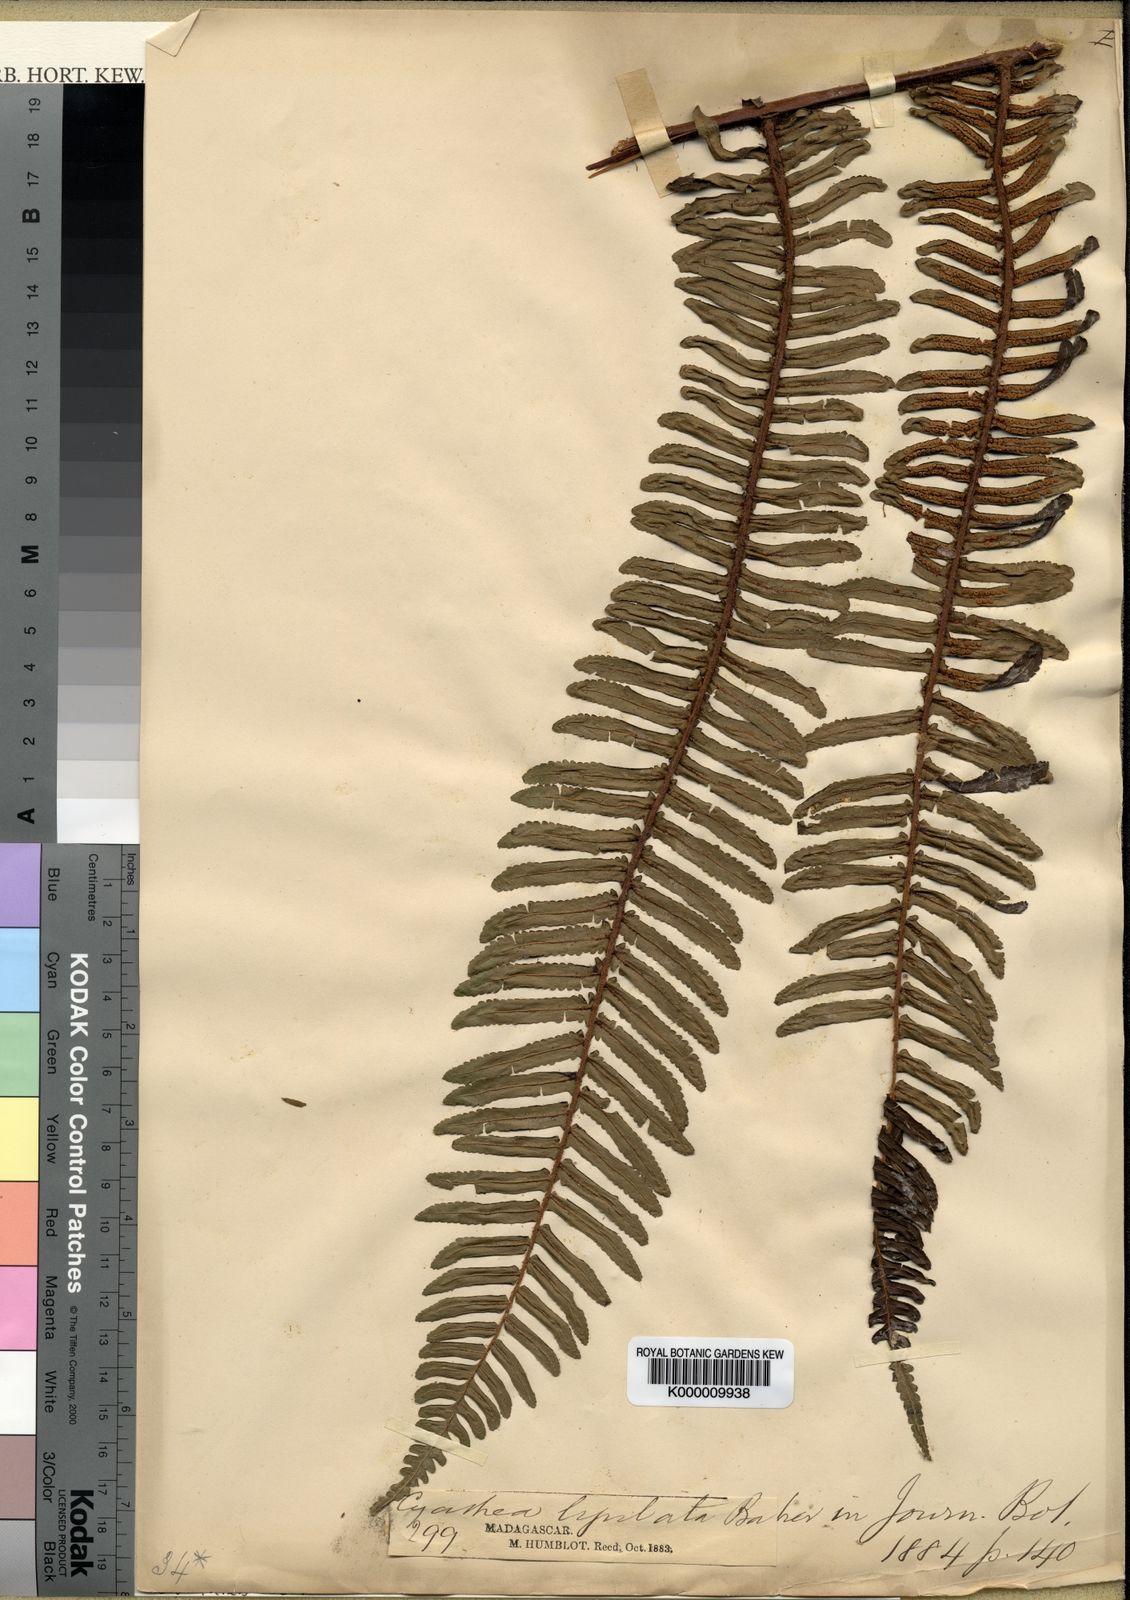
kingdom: Plantae
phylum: Tracheophyta
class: Polypodiopsida
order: Cyatheales
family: Cyatheaceae
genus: Alsophila
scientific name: Alsophila ligulata
